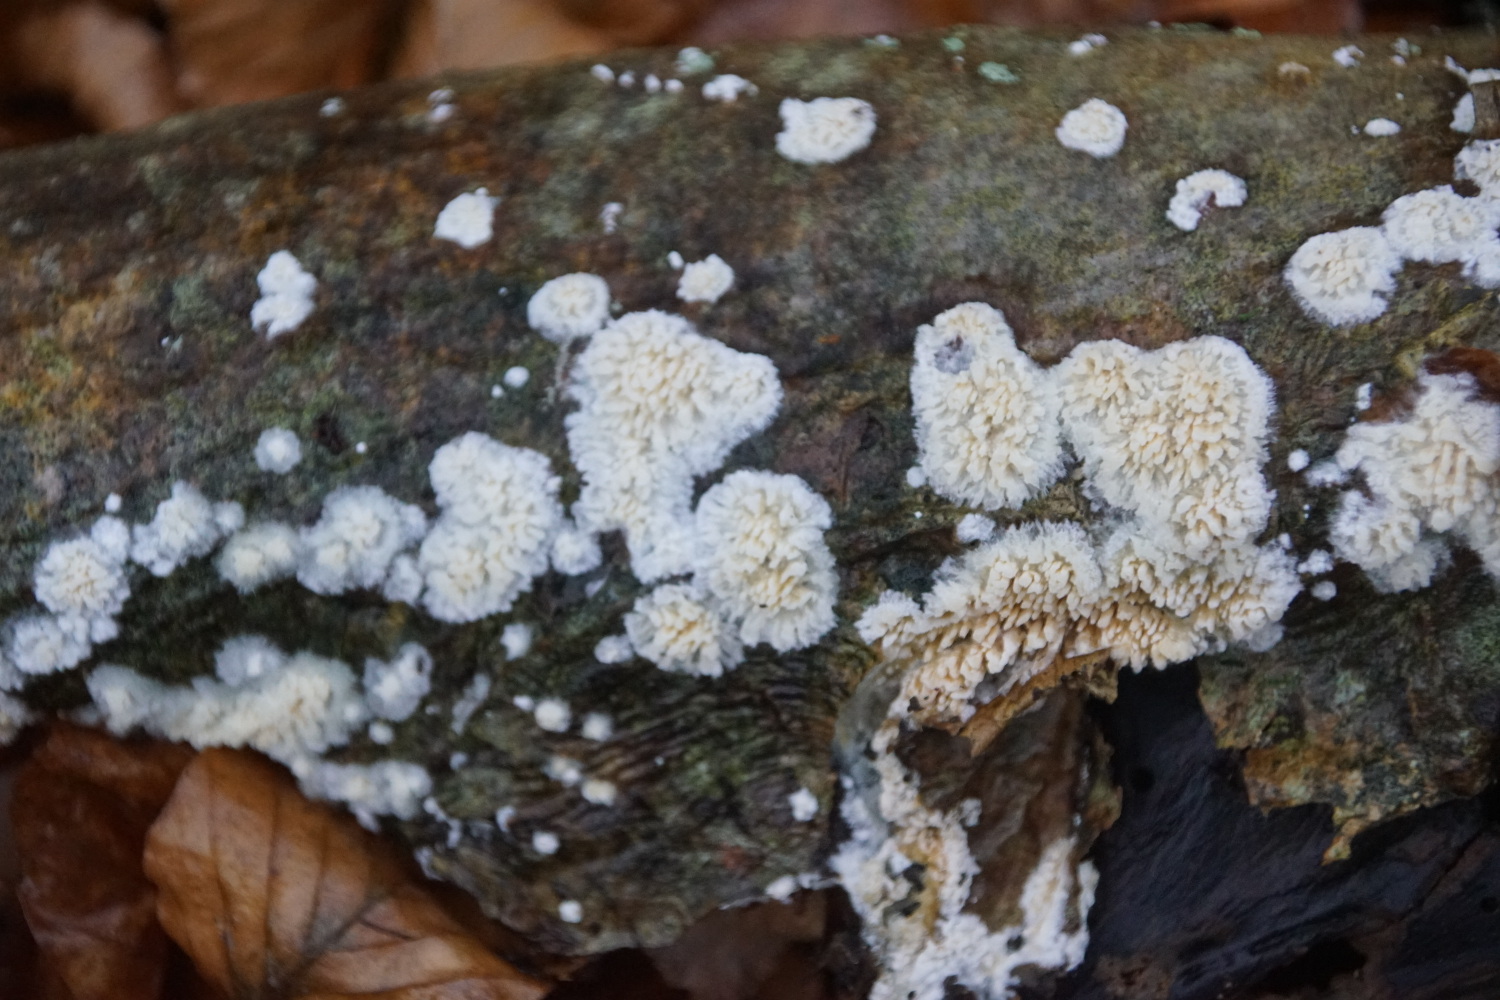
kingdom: Fungi
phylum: Basidiomycota
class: Agaricomycetes
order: Hymenochaetales
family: Schizoporaceae
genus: Xylodon
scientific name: Xylodon radula
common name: grovtandet kalkskind
